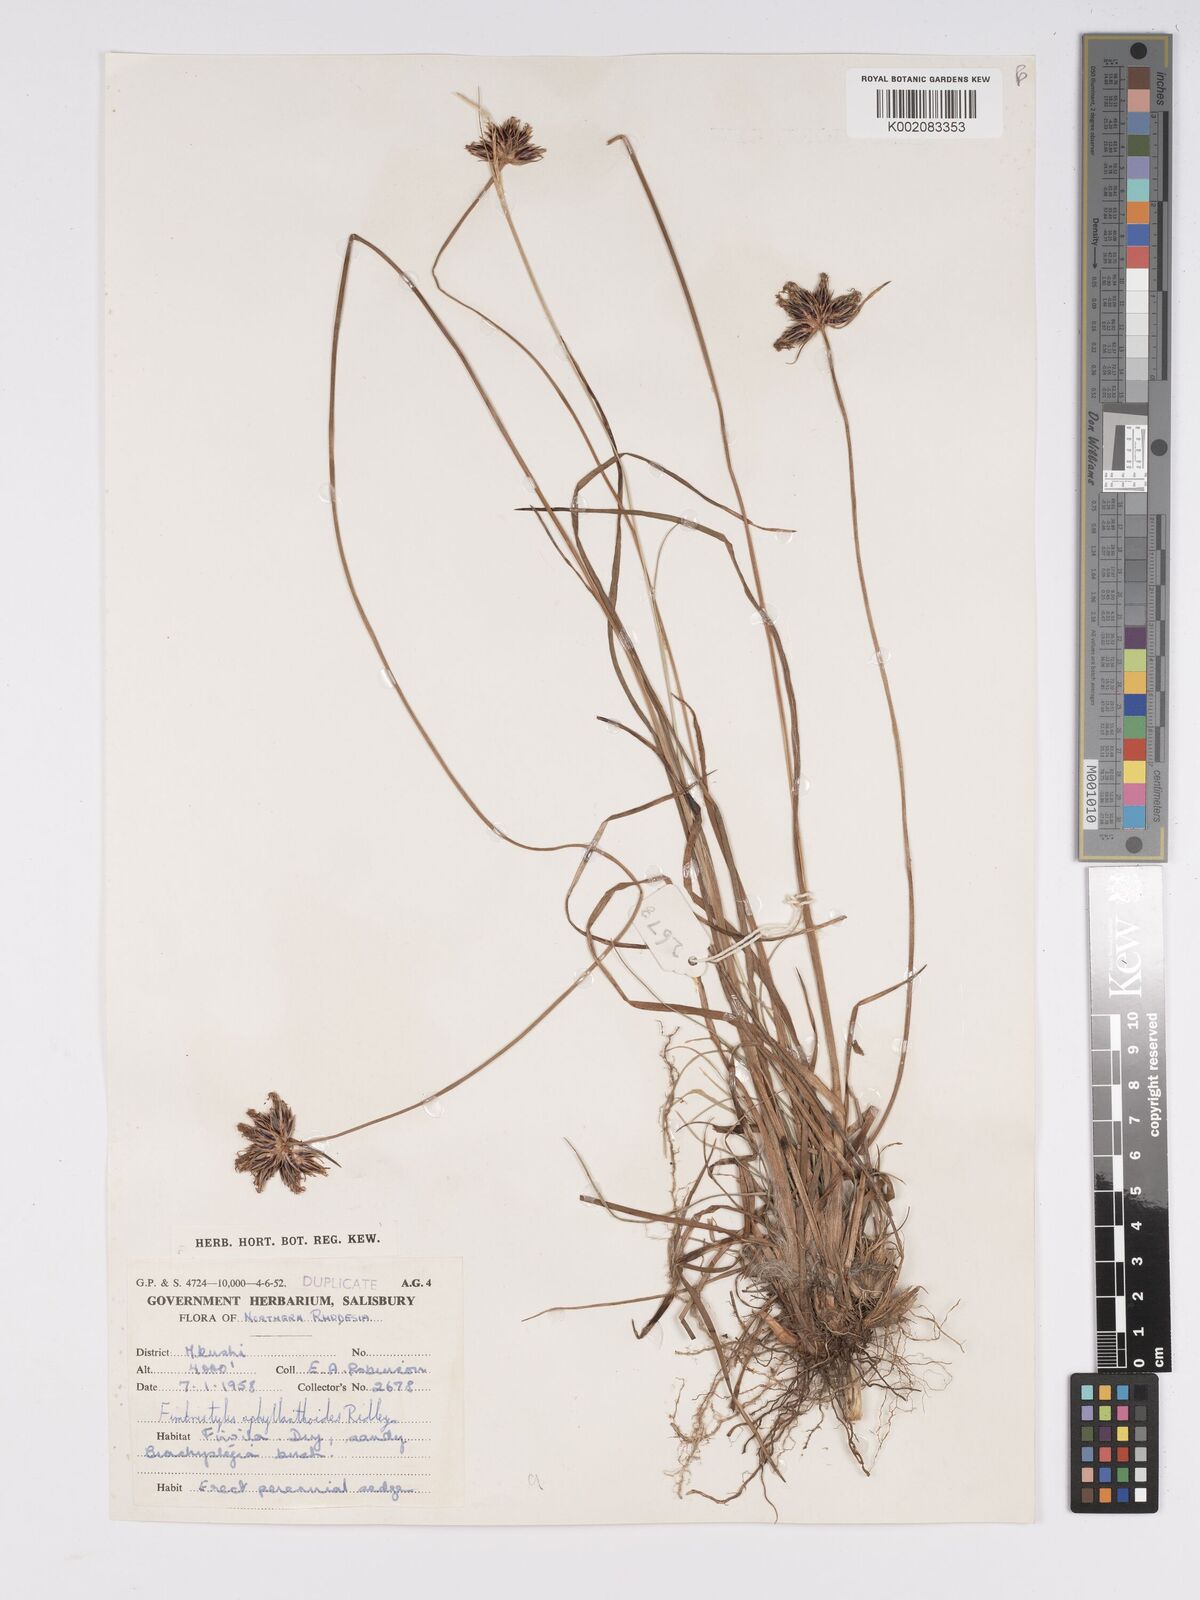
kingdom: Plantae
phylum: Tracheophyta
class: Liliopsida
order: Poales
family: Cyperaceae
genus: Bulbostylis
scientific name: Bulbostylis pilosa
